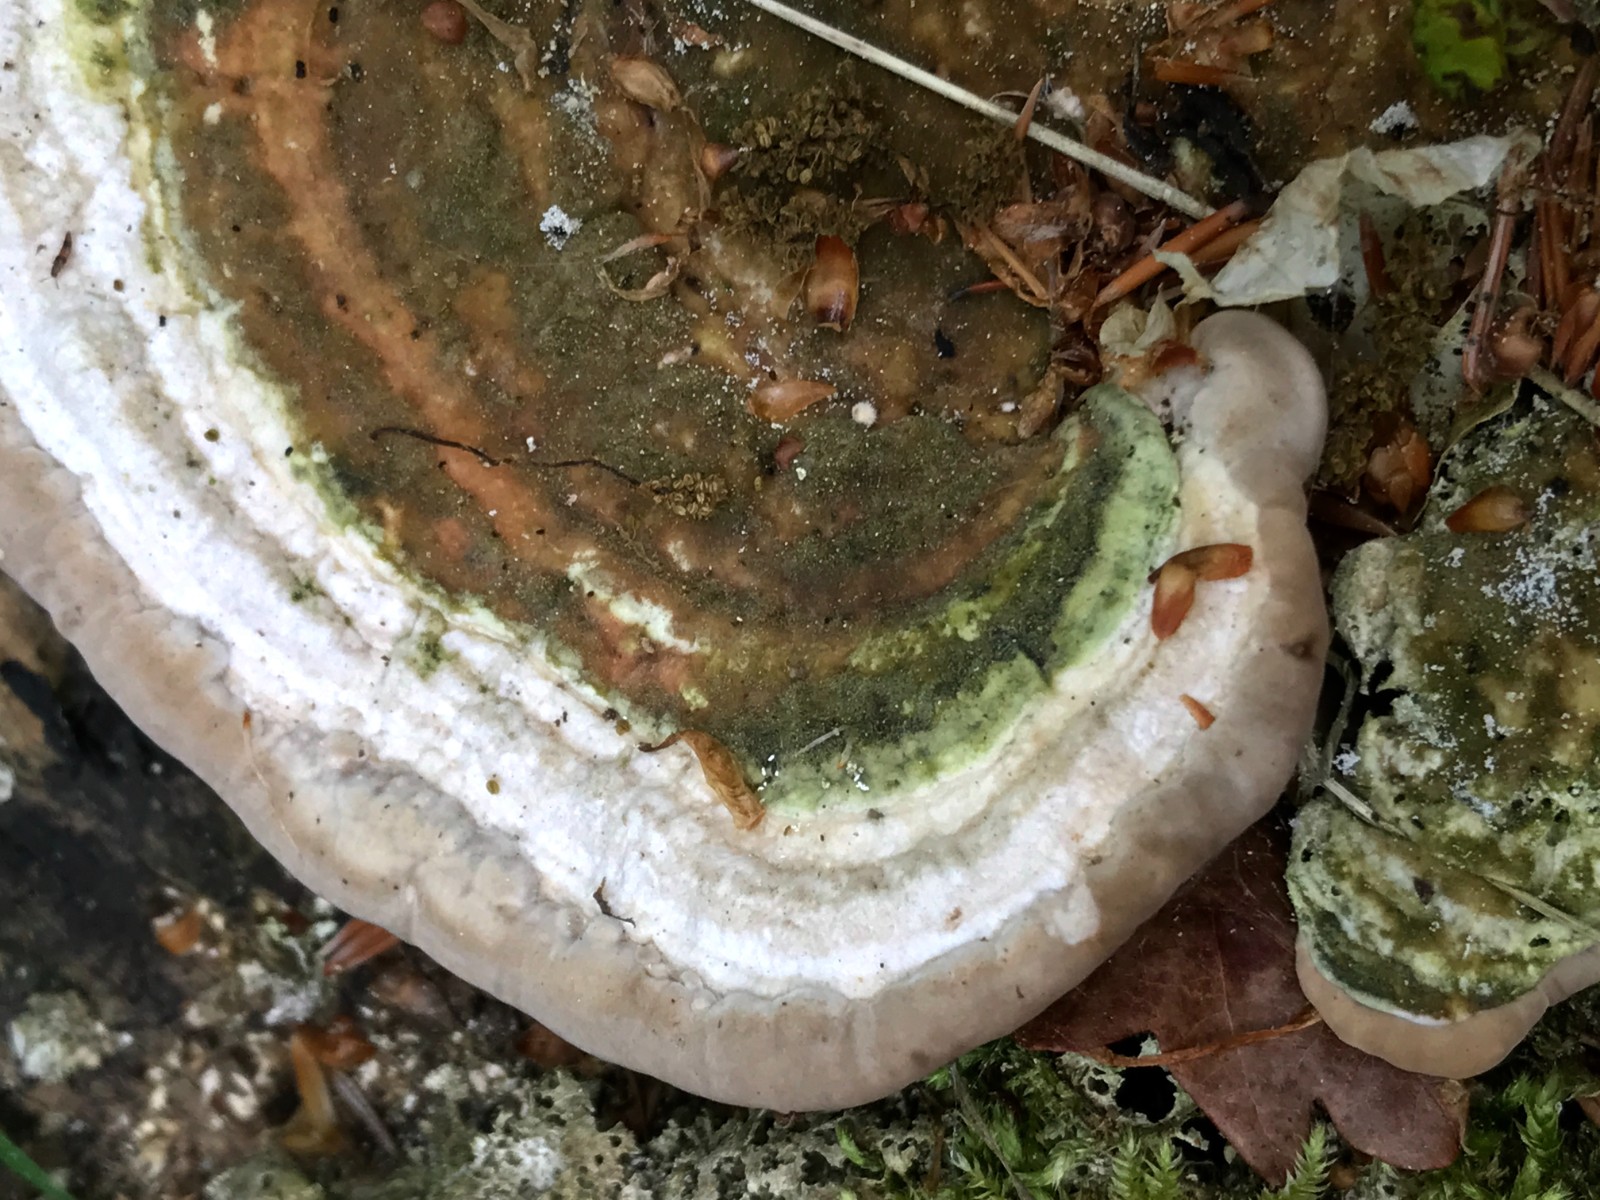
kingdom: Fungi
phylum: Basidiomycota
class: Agaricomycetes
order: Polyporales
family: Polyporaceae
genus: Trametes
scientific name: Trametes gibbosa
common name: puklet læderporesvamp
